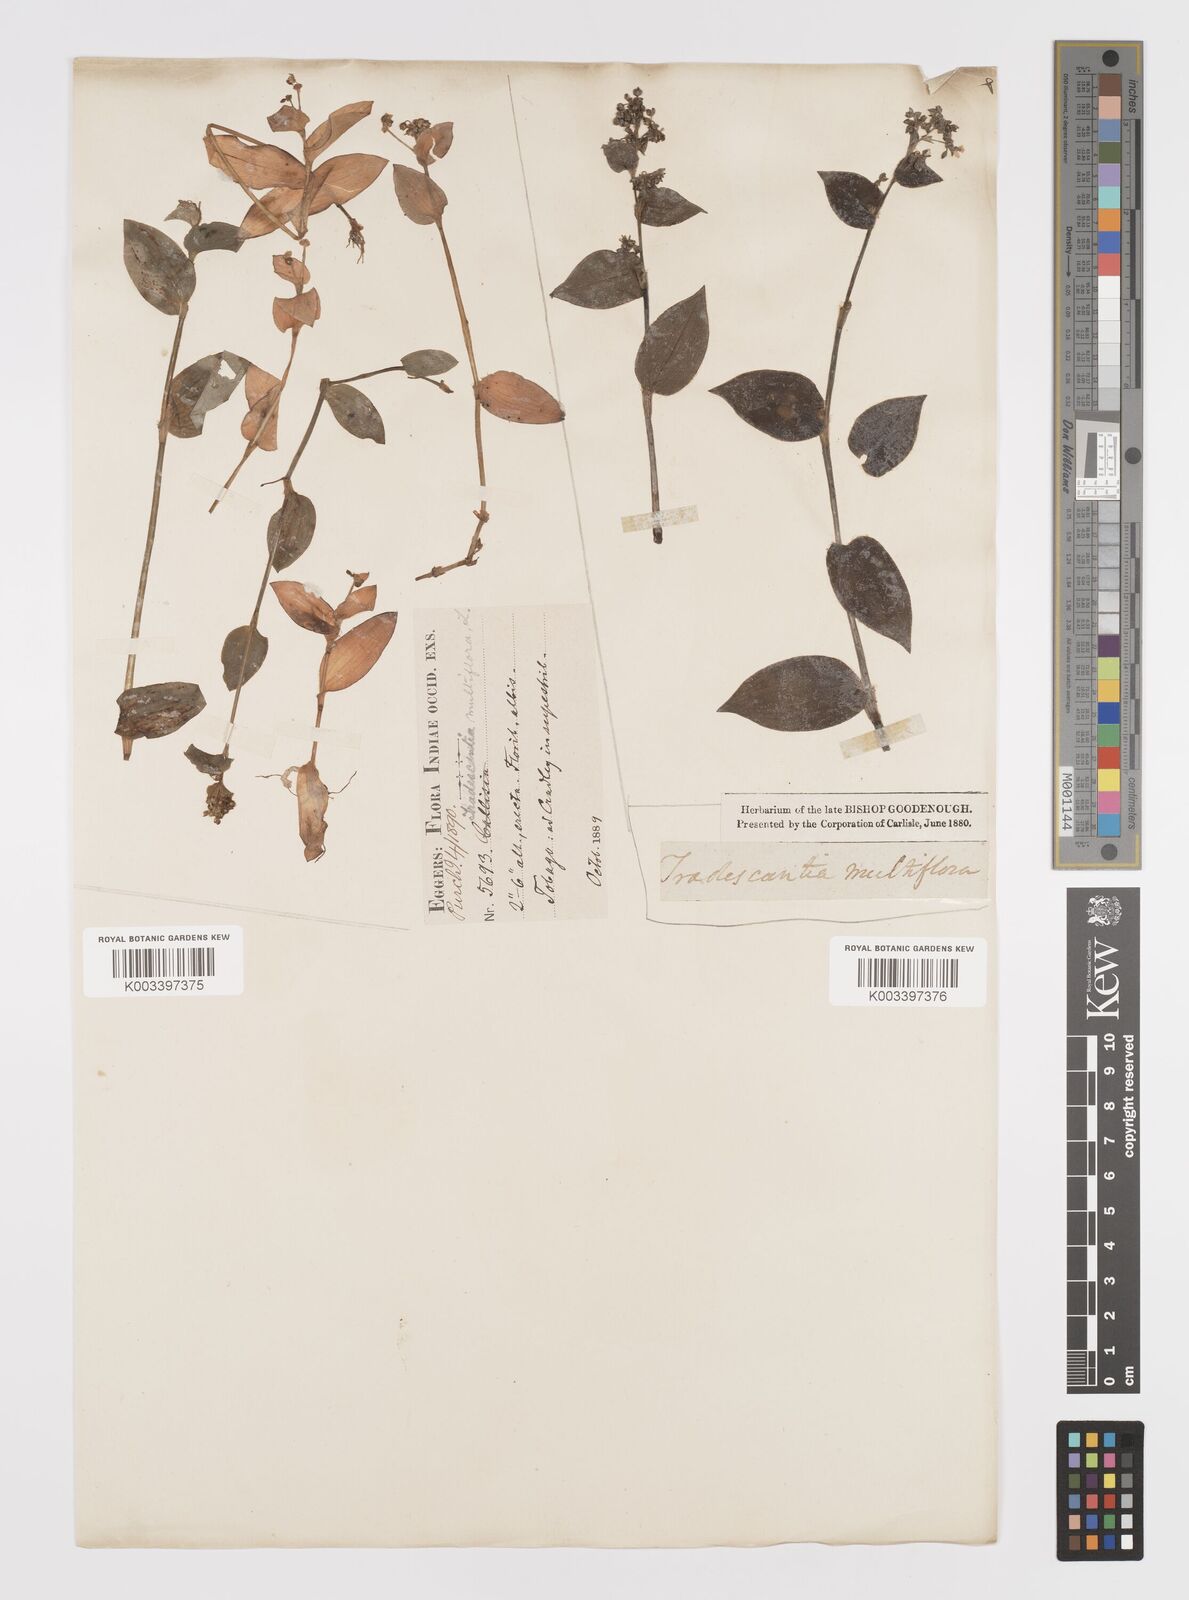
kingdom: Plantae
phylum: Tracheophyta
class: Liliopsida
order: Commelinales
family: Commelinaceae
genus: Callisia
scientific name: Callisia procumbens
